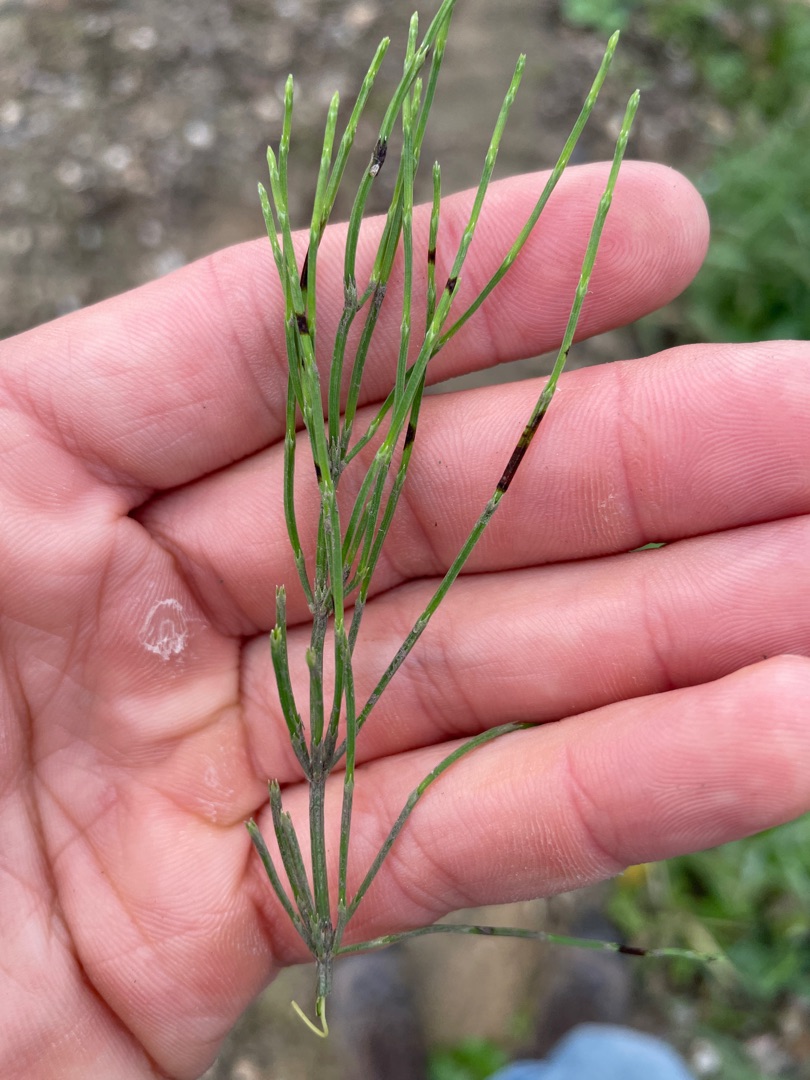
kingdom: Plantae
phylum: Tracheophyta
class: Polypodiopsida
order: Equisetales
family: Equisetaceae
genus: Equisetum
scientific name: Equisetum arvense
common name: Ager-padderok
